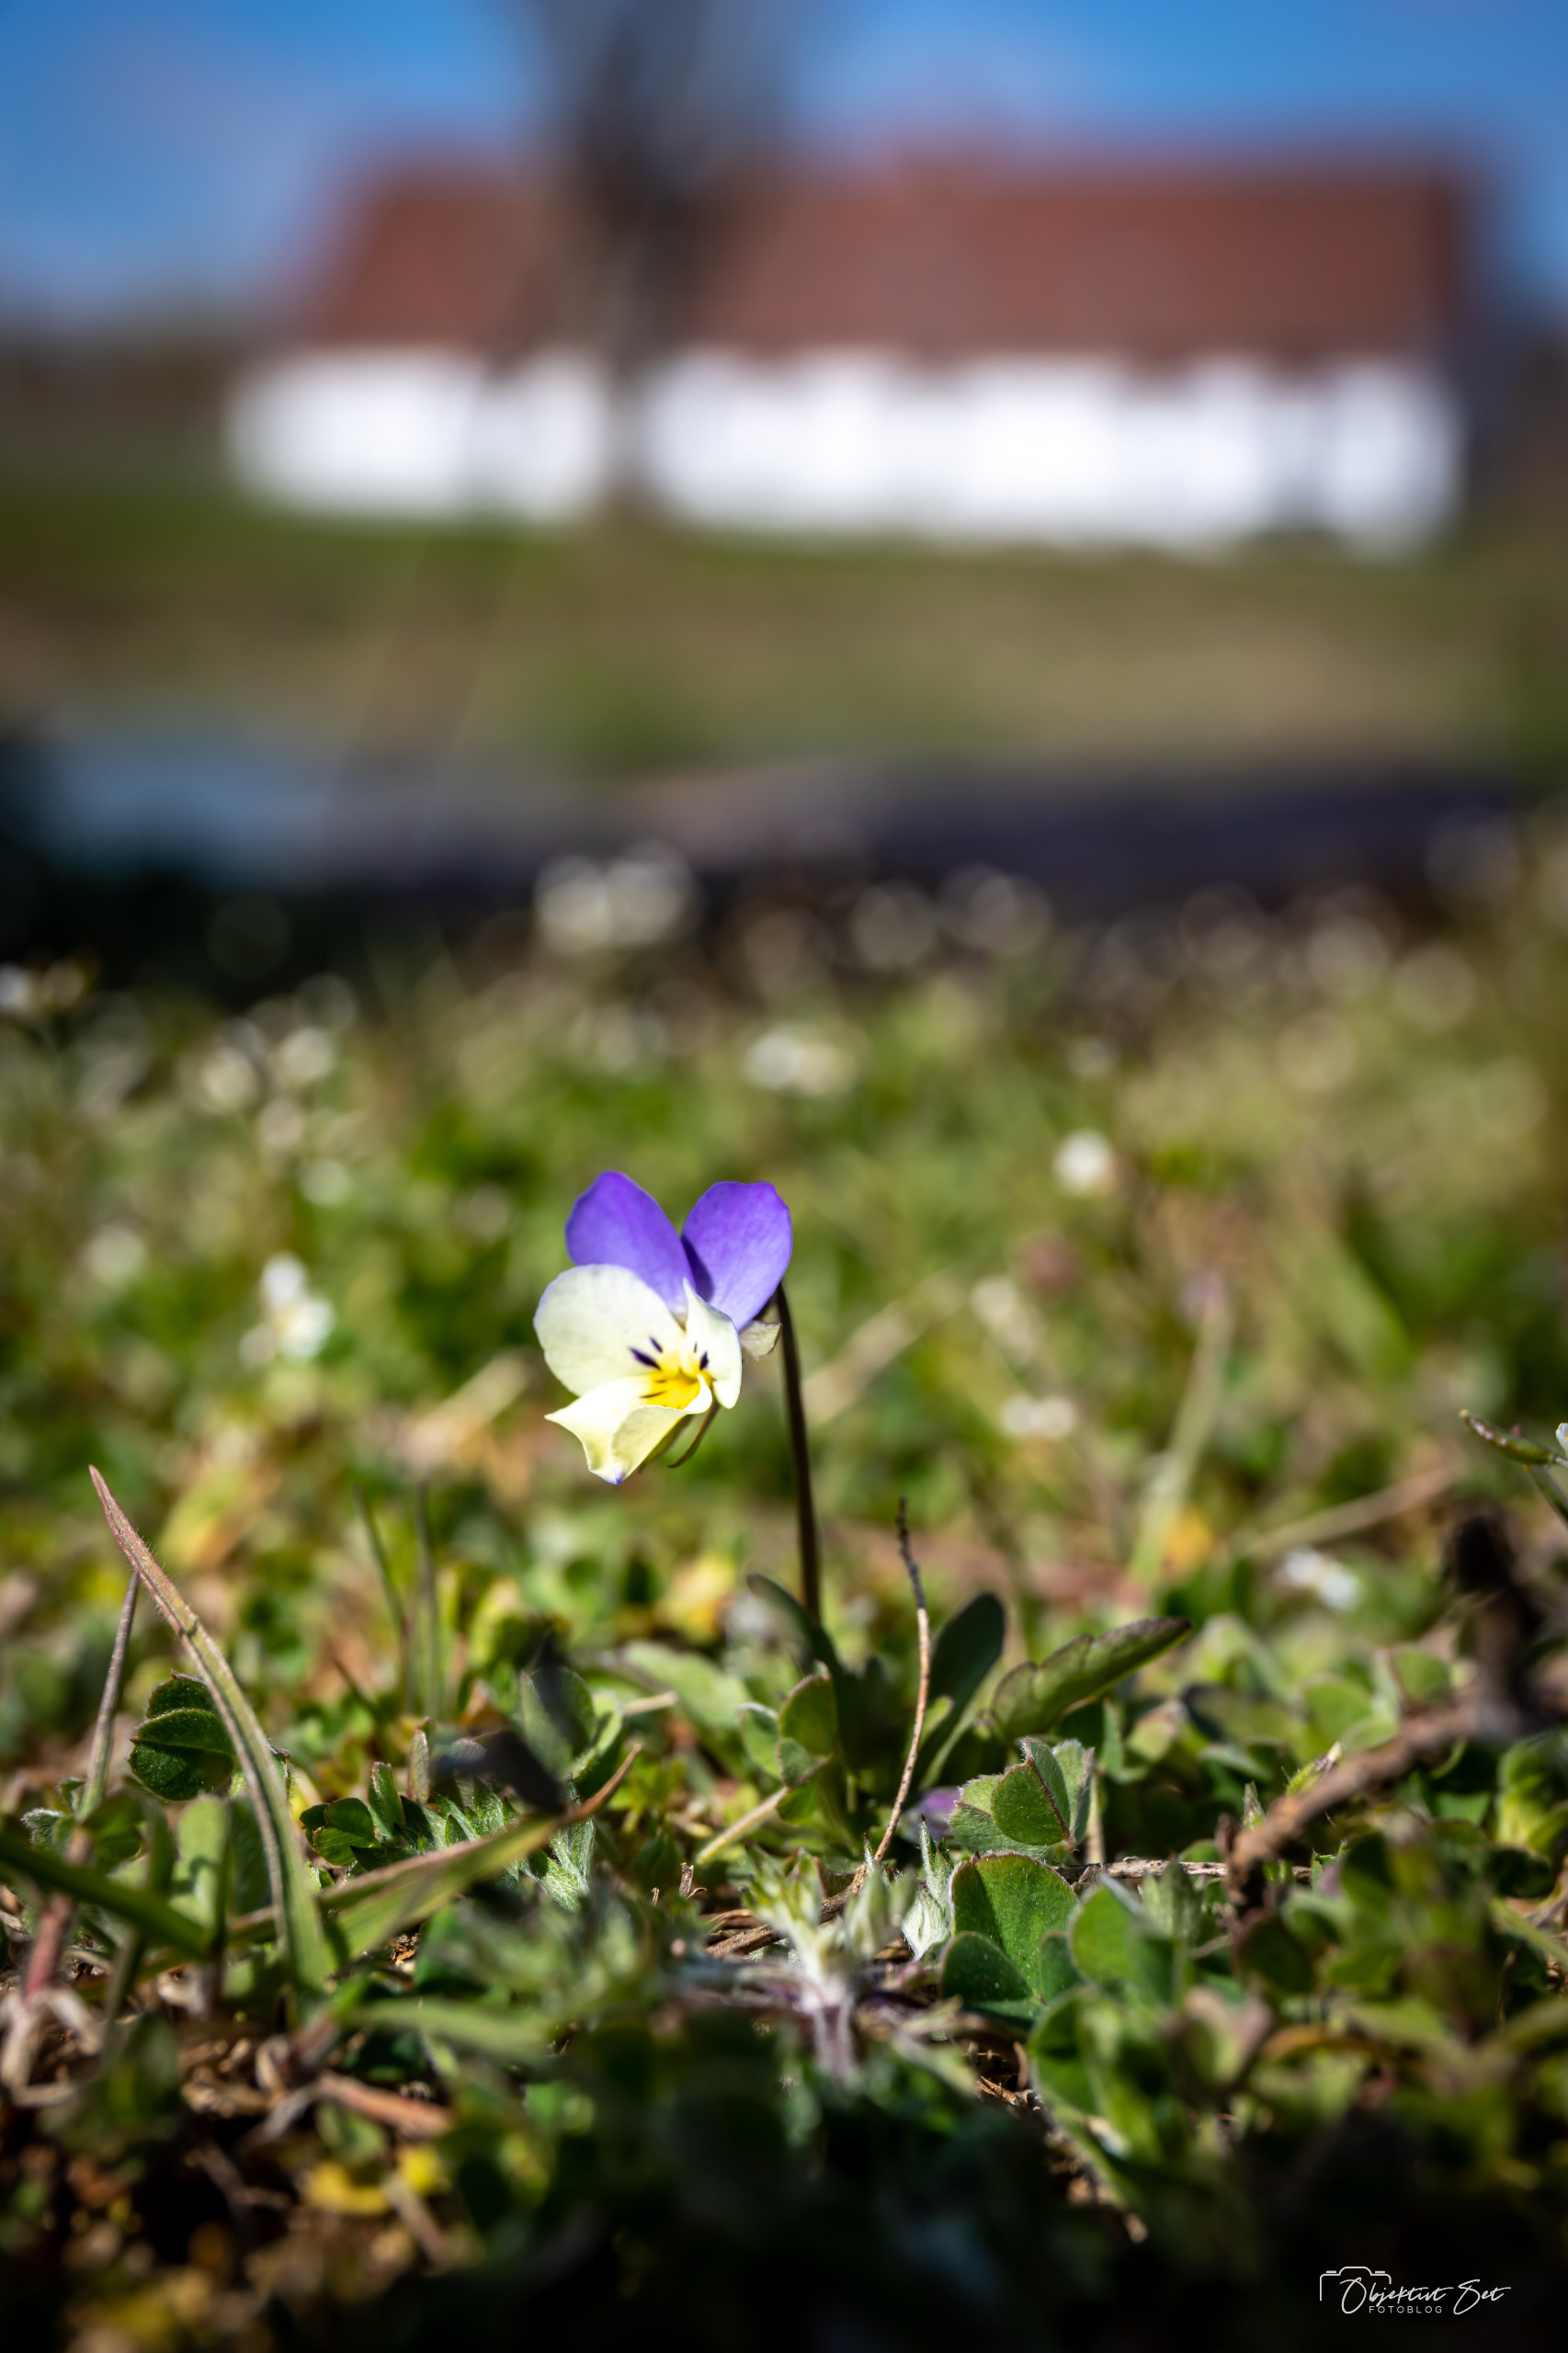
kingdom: Plantae
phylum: Tracheophyta
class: Magnoliopsida
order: Malpighiales
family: Violaceae
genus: Viola
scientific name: Viola tricolor
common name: Stedmoderblomst
